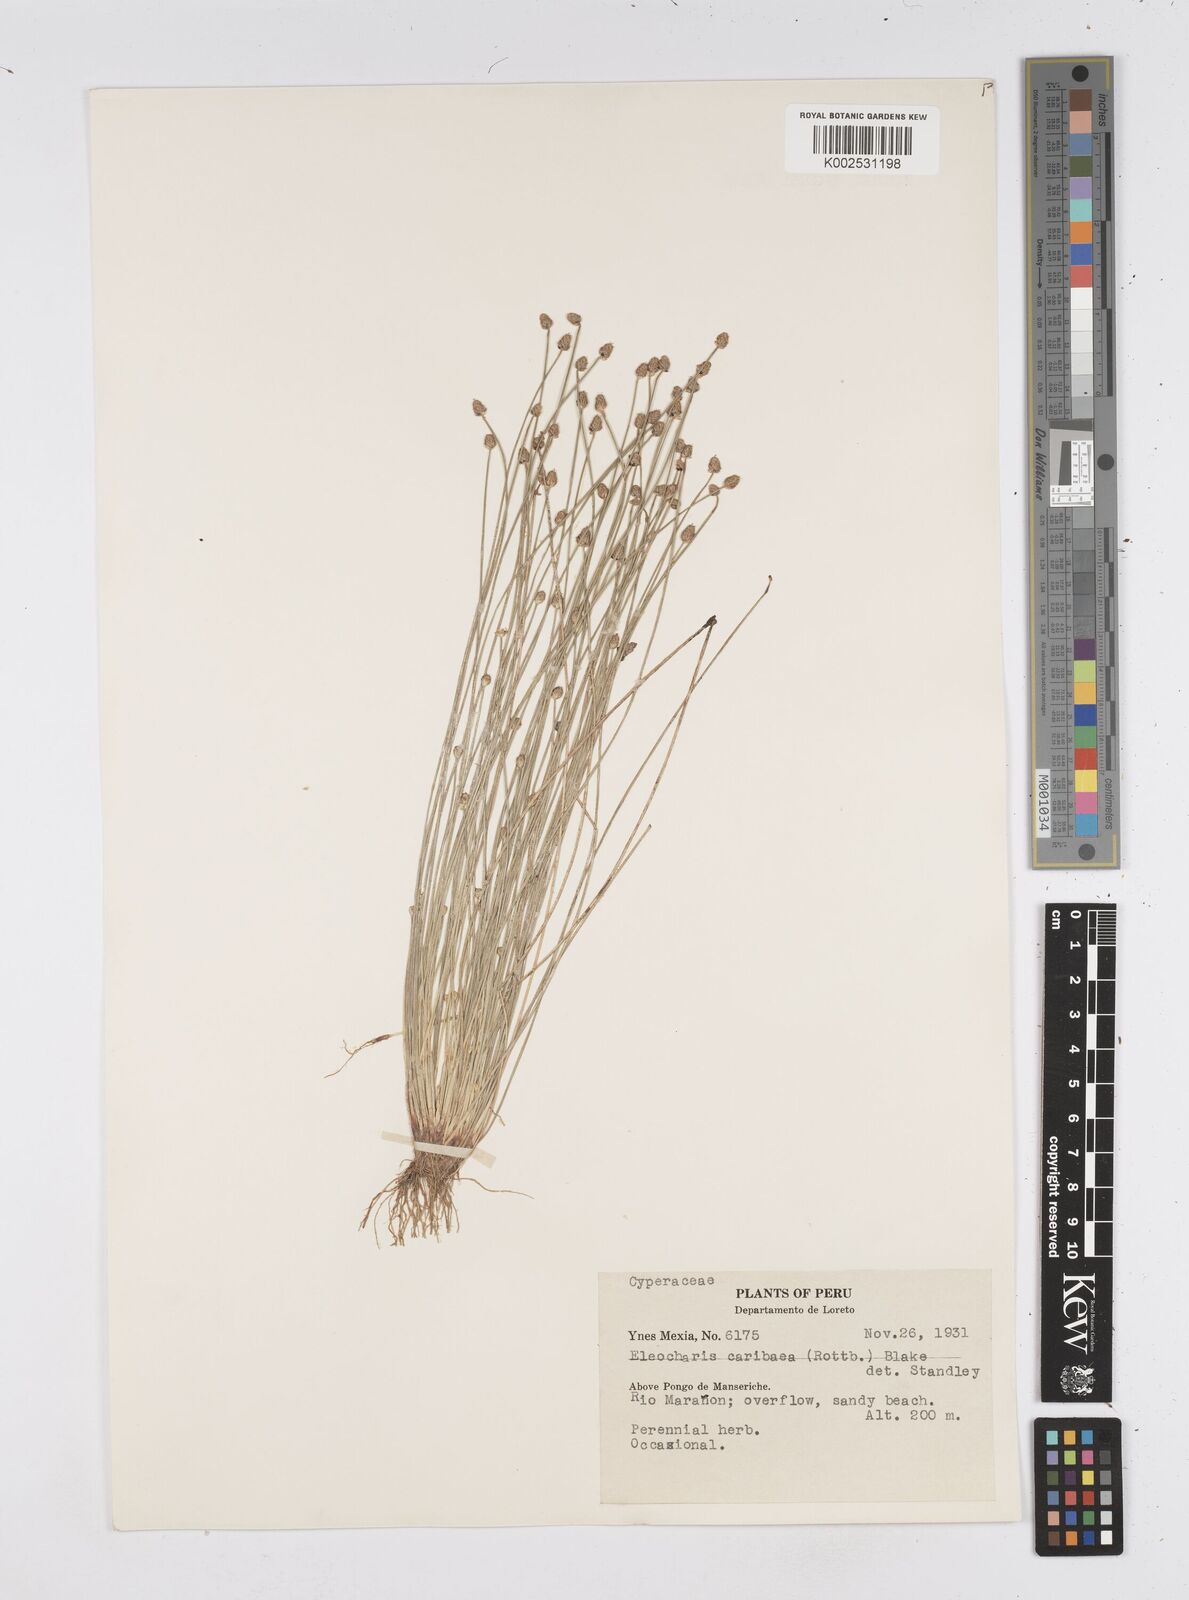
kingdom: Plantae
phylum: Tracheophyta
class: Liliopsida
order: Poales
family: Cyperaceae
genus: Eleocharis
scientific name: Eleocharis geniculata
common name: Canada spikesedge
